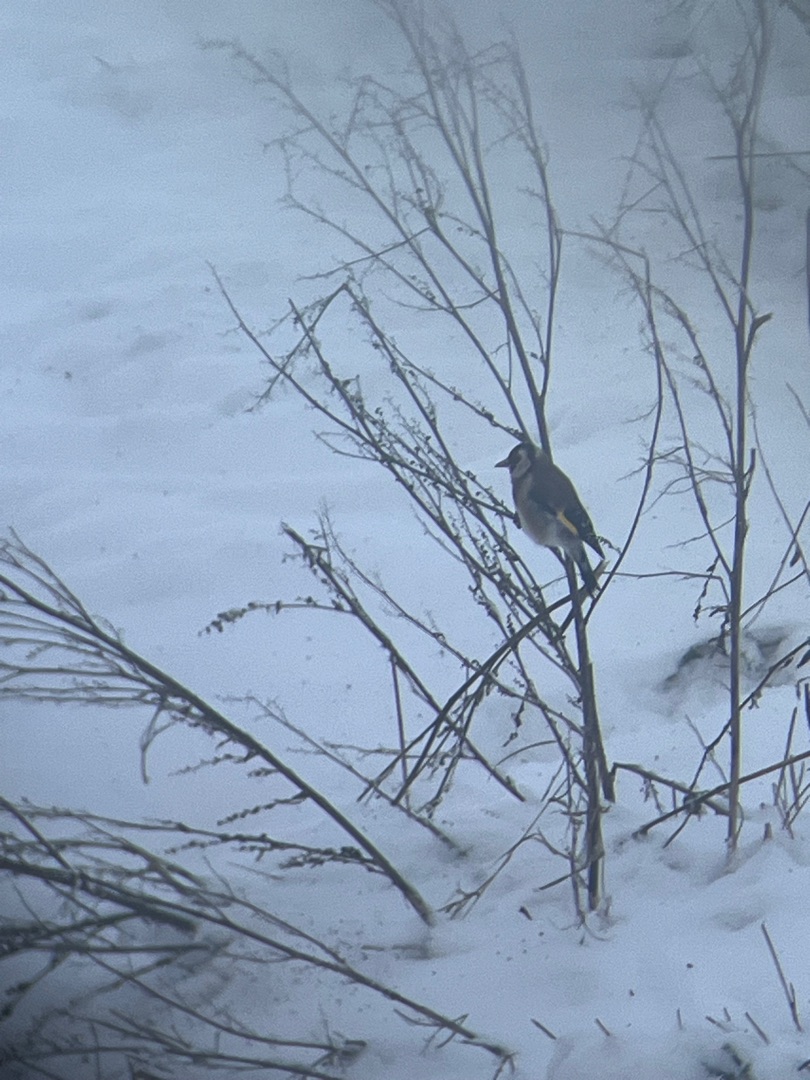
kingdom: Animalia
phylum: Chordata
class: Aves
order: Passeriformes
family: Fringillidae
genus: Carduelis
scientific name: Carduelis carduelis
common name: Stillits
